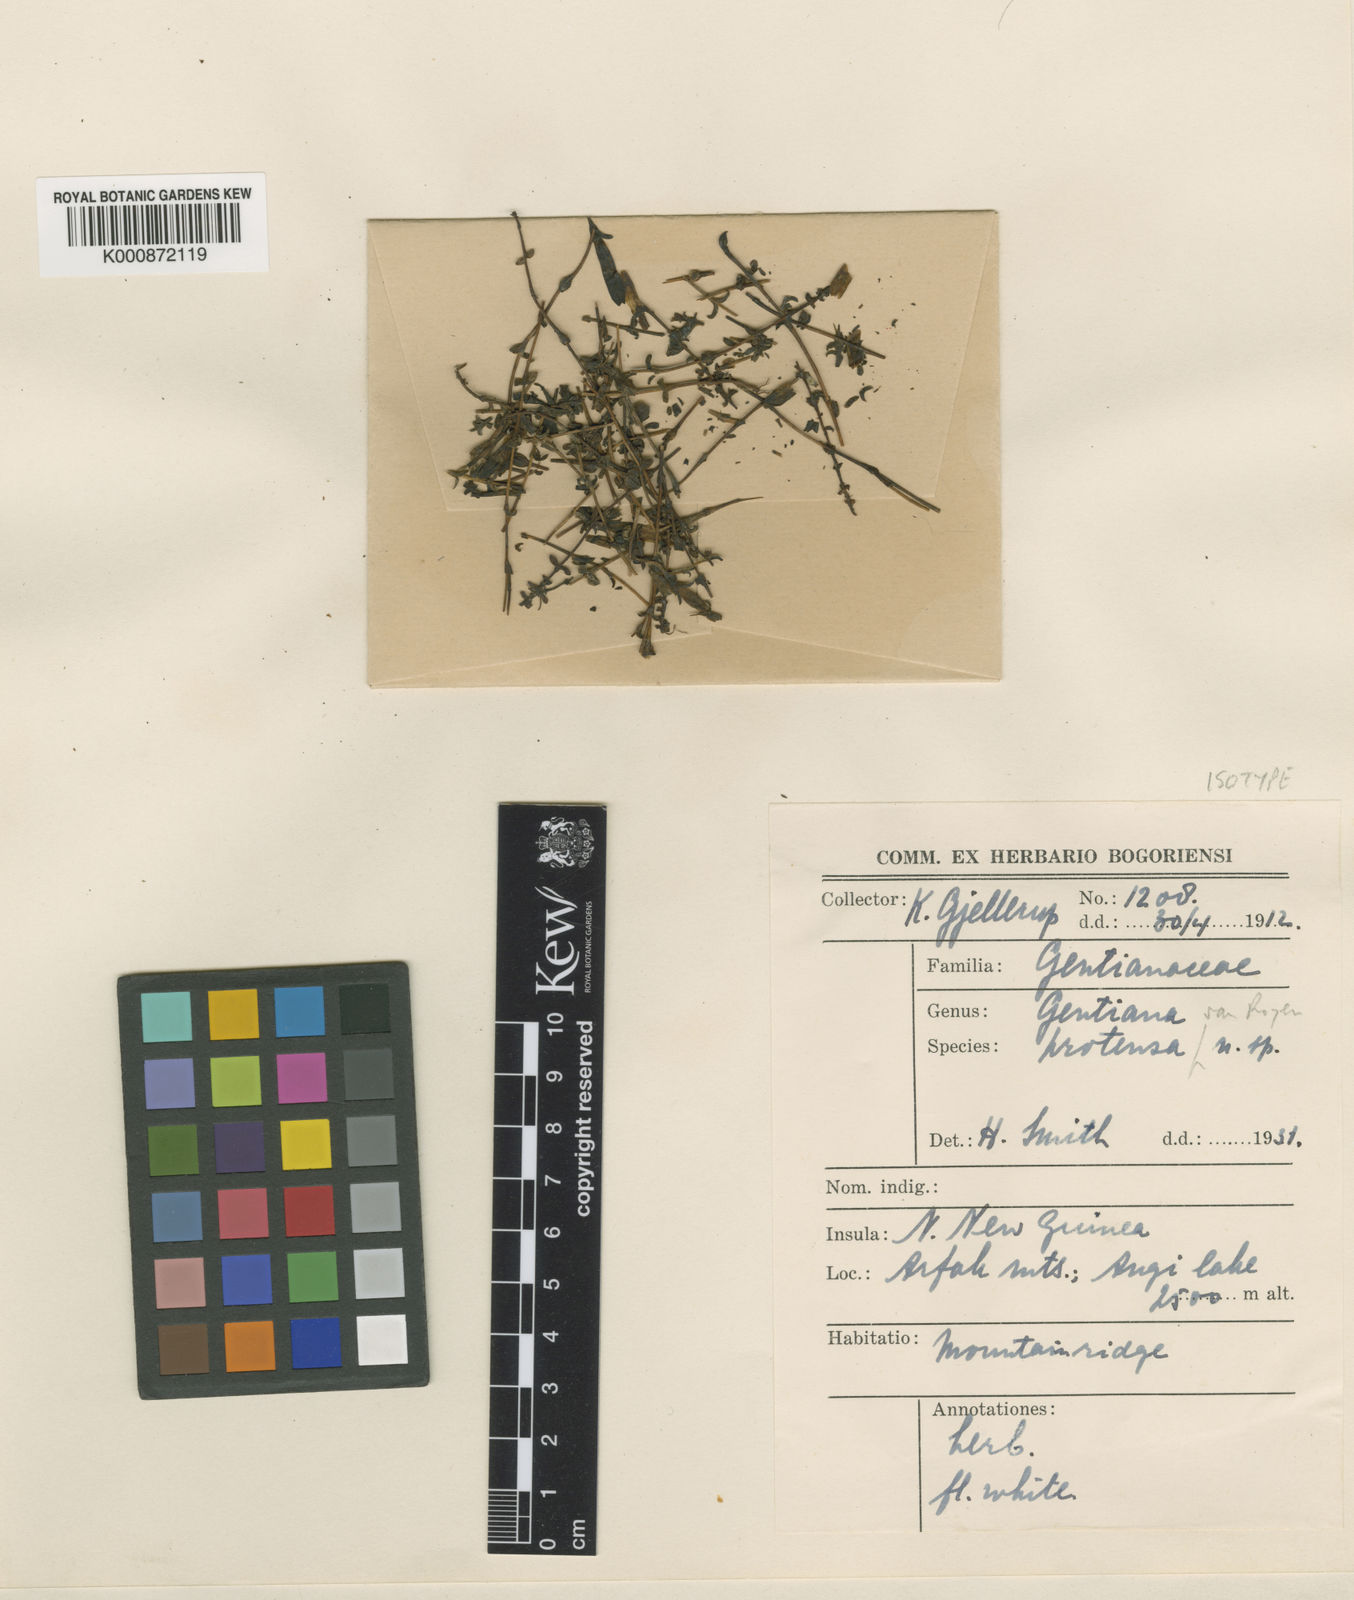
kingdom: Plantae
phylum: Tracheophyta
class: Magnoliopsida
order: Gentianales
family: Gentianaceae
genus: Gentiana
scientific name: Gentiana vandewateri
